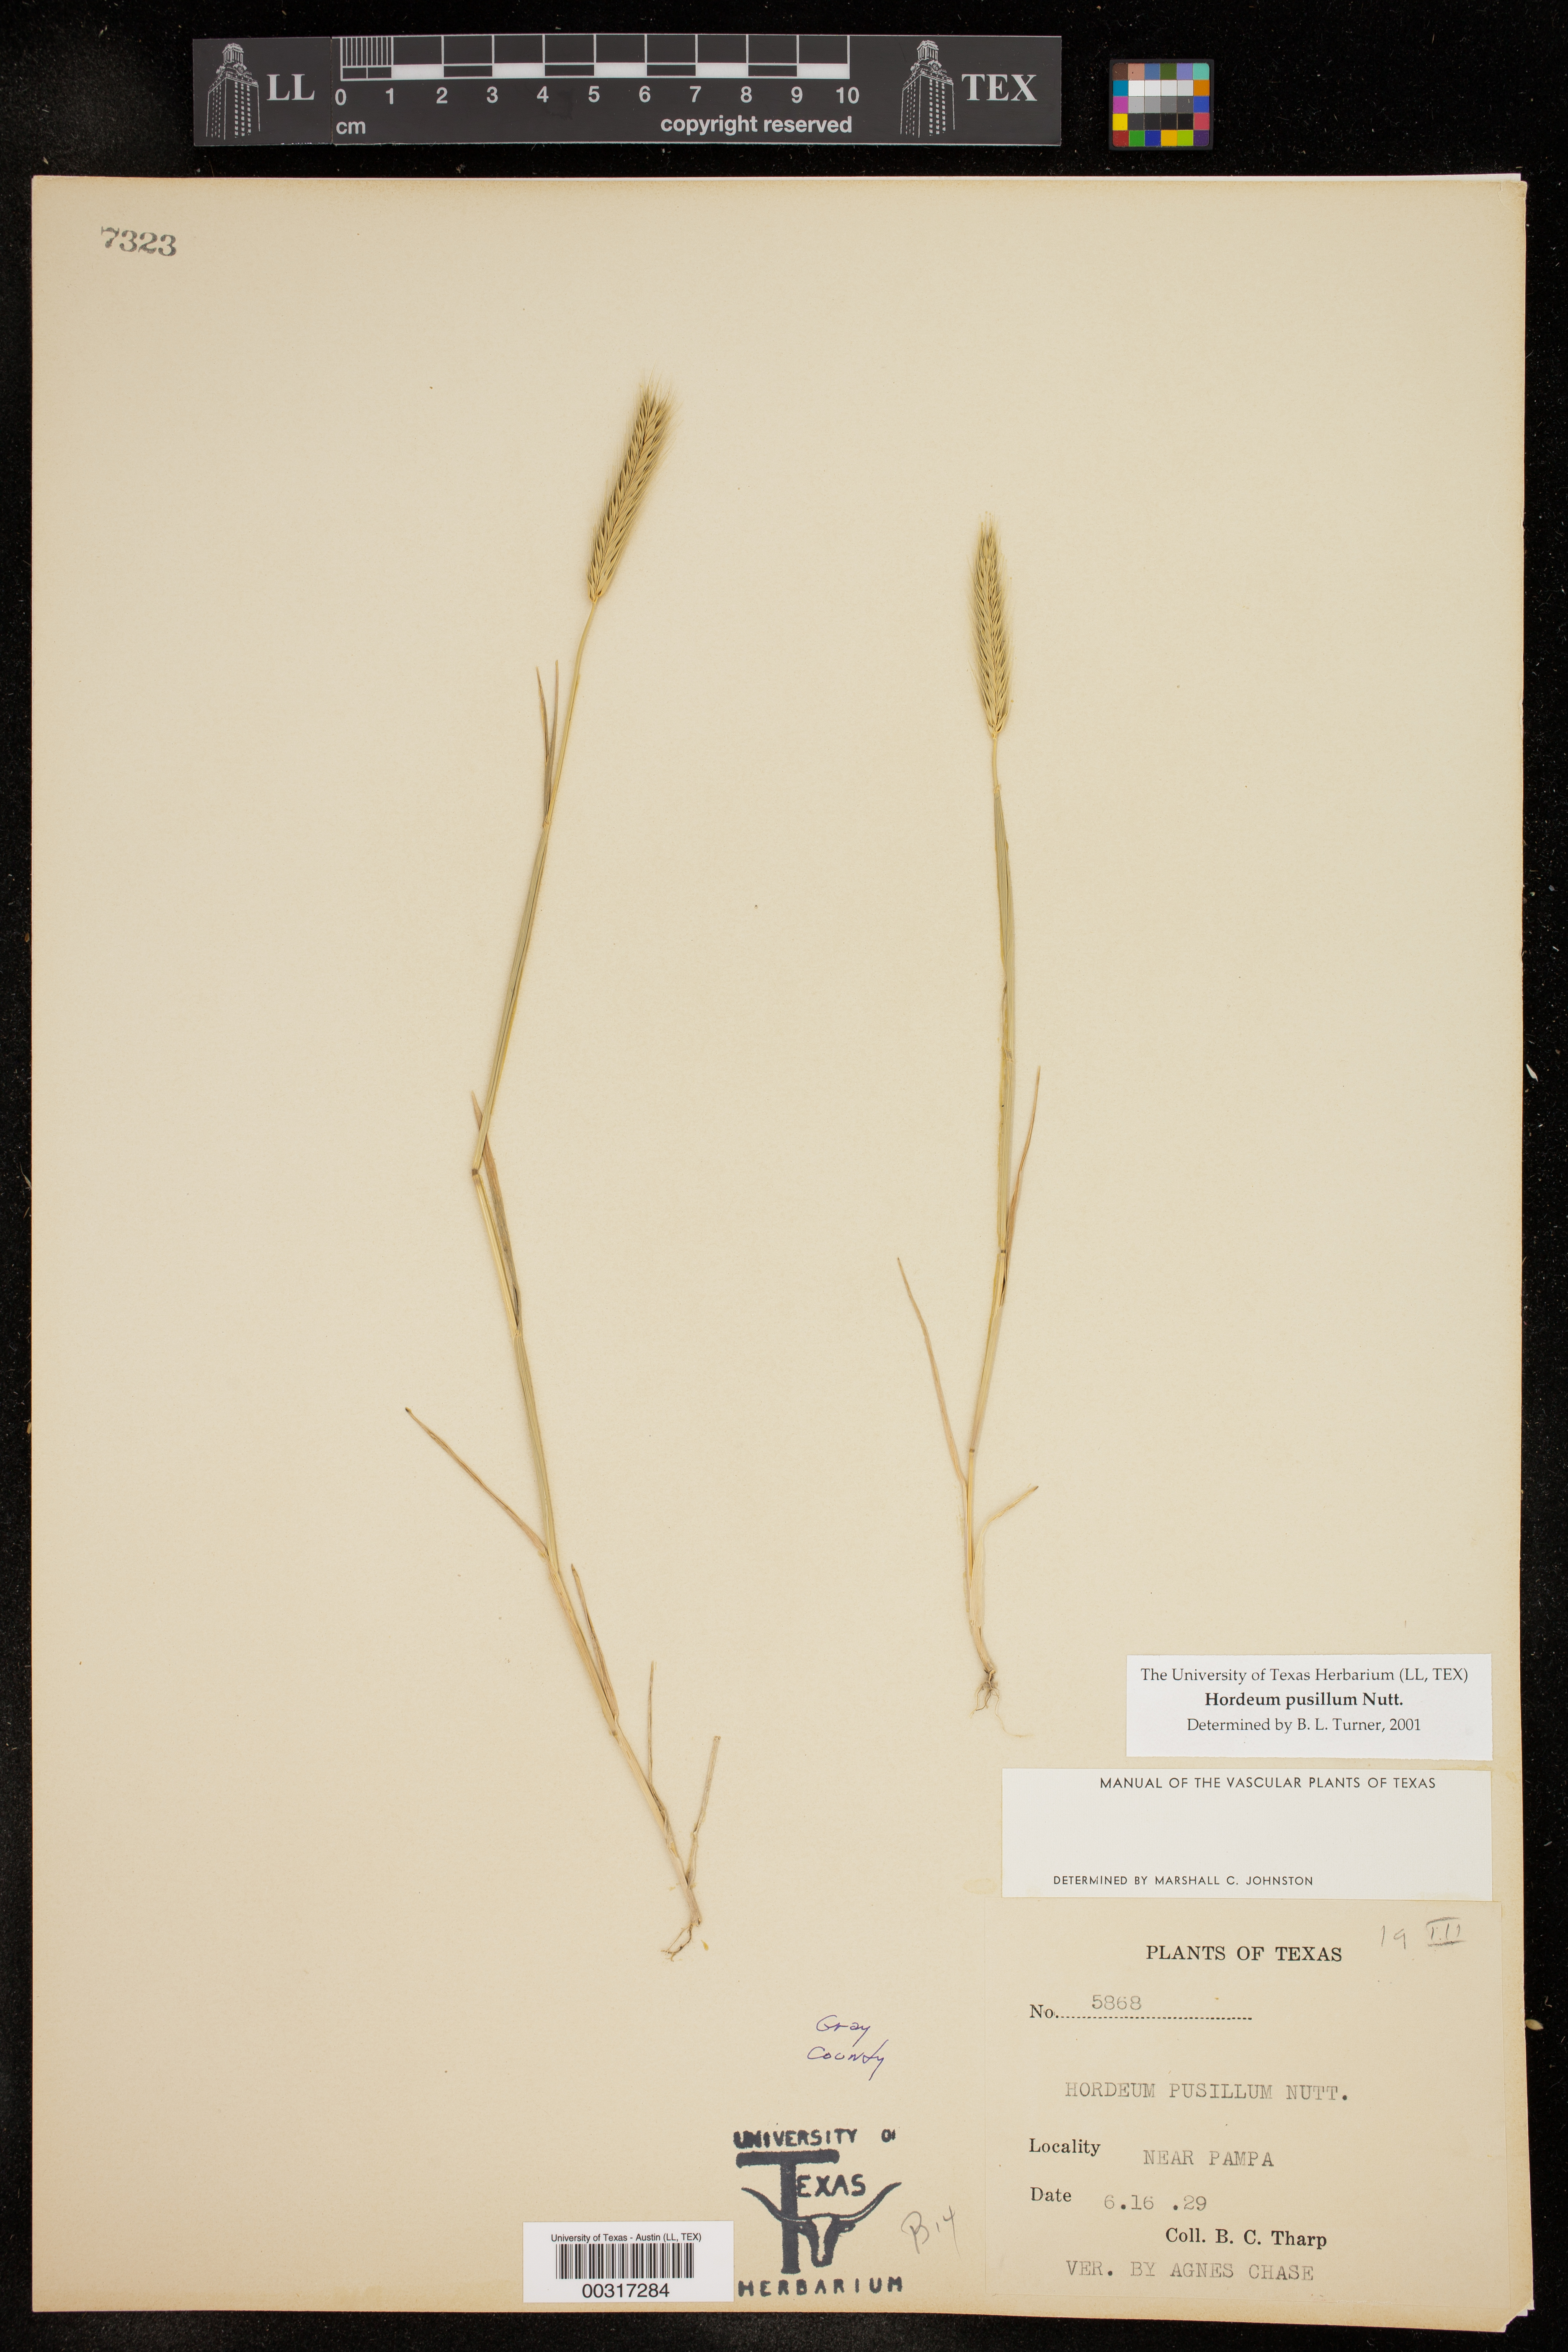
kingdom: Plantae
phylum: Tracheophyta
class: Liliopsida
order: Poales
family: Poaceae
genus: Hordeum
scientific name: Hordeum pusillum
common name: Little barley
